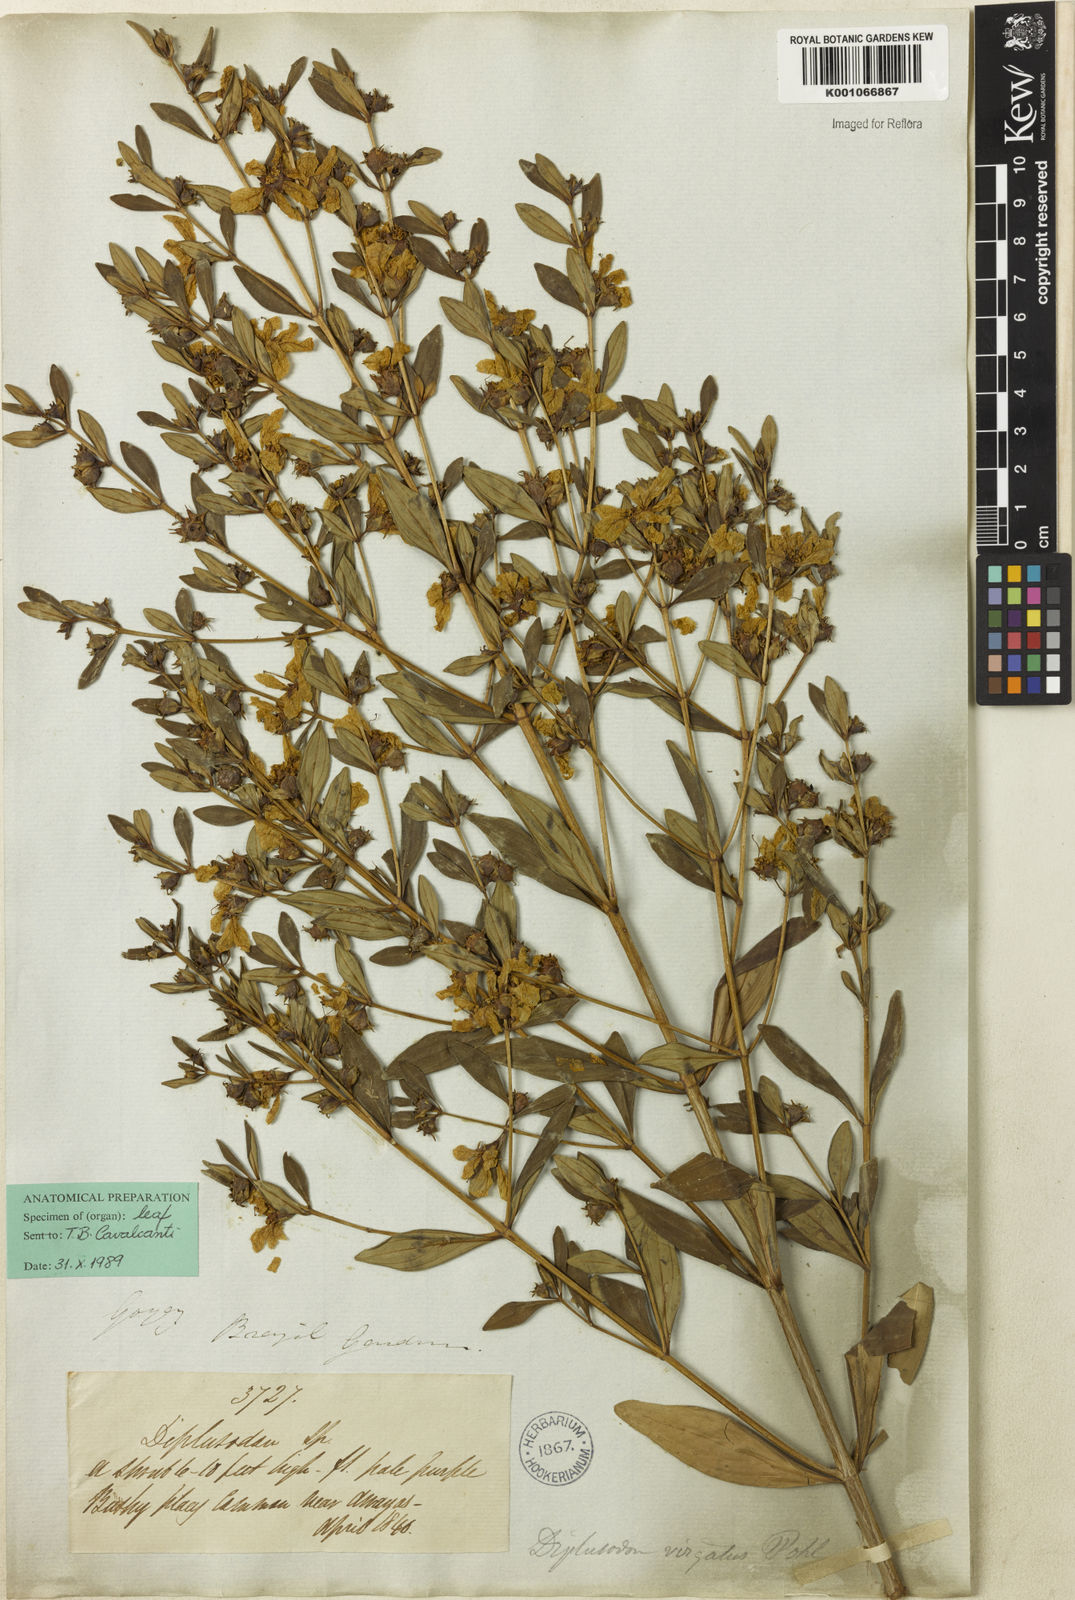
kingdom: Plantae
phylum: Tracheophyta
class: Magnoliopsida
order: Myrtales
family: Lythraceae
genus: Diplusodon
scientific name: Diplusodon virgatus
